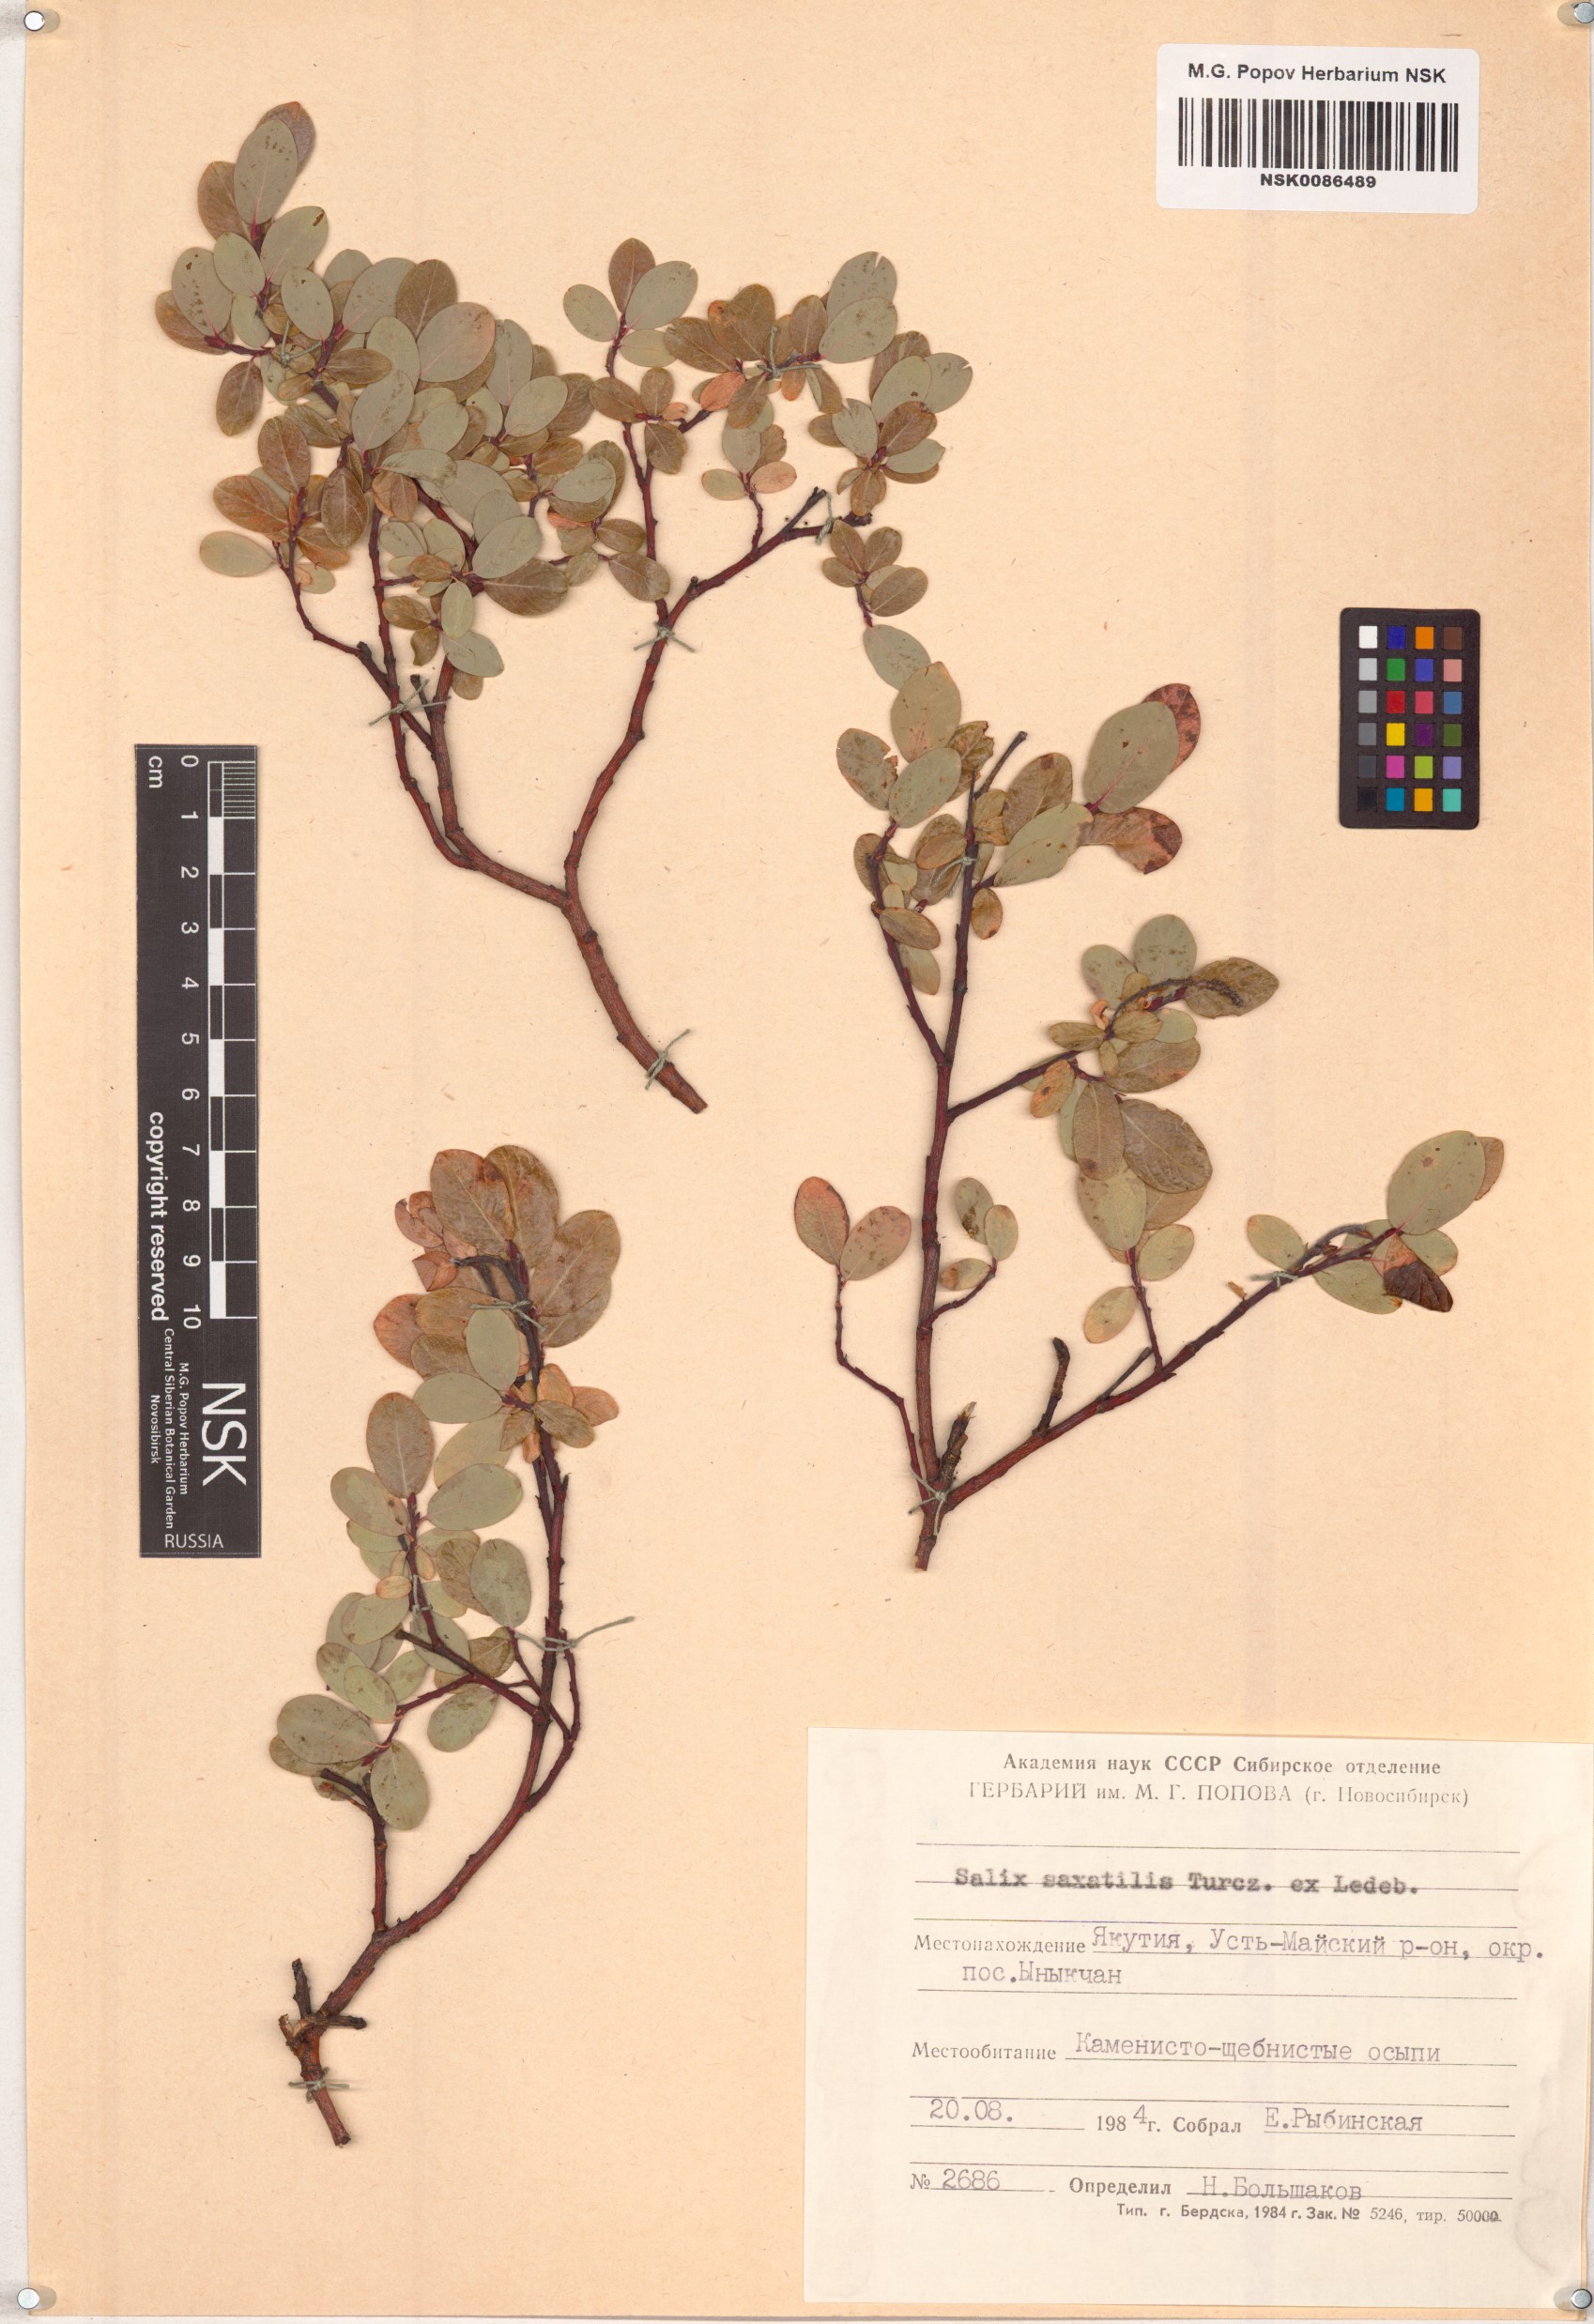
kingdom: Plantae
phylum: Tracheophyta
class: Magnoliopsida
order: Malpighiales
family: Salicaceae
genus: Salix
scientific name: Salix saxatilis
